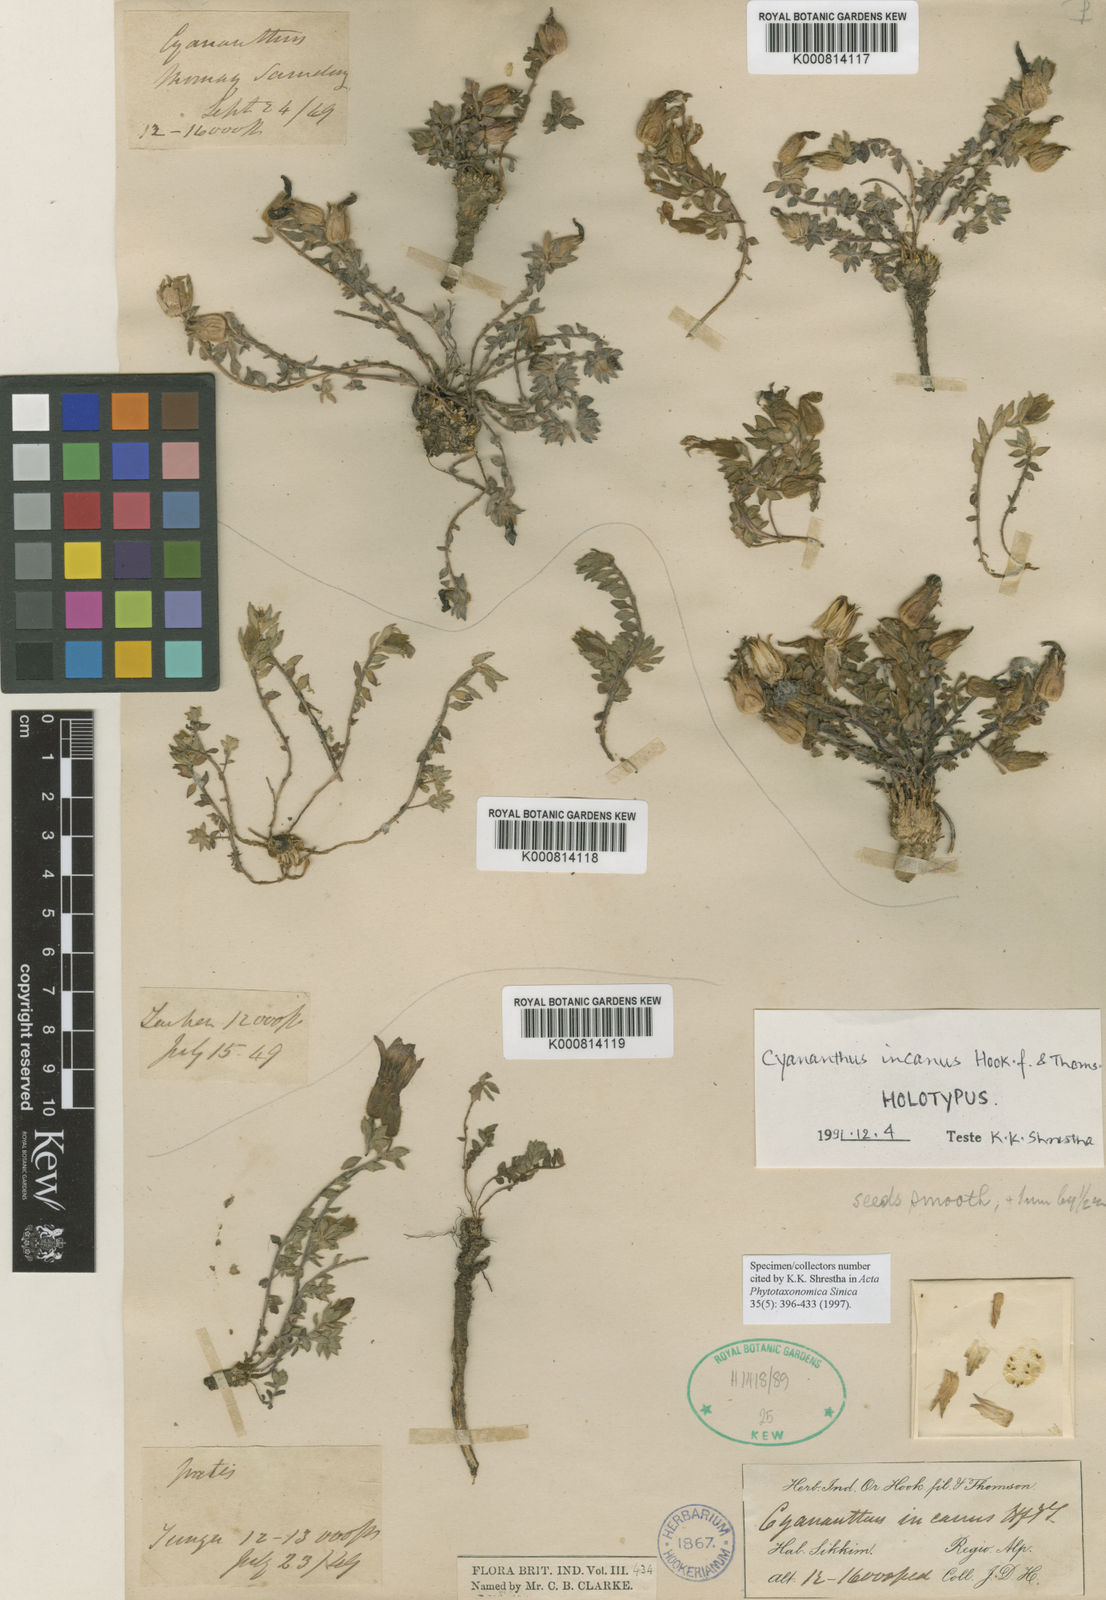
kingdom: Plantae
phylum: Tracheophyta
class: Magnoliopsida
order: Asterales
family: Campanulaceae
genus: Cyananthus
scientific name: Cyananthus incanus
